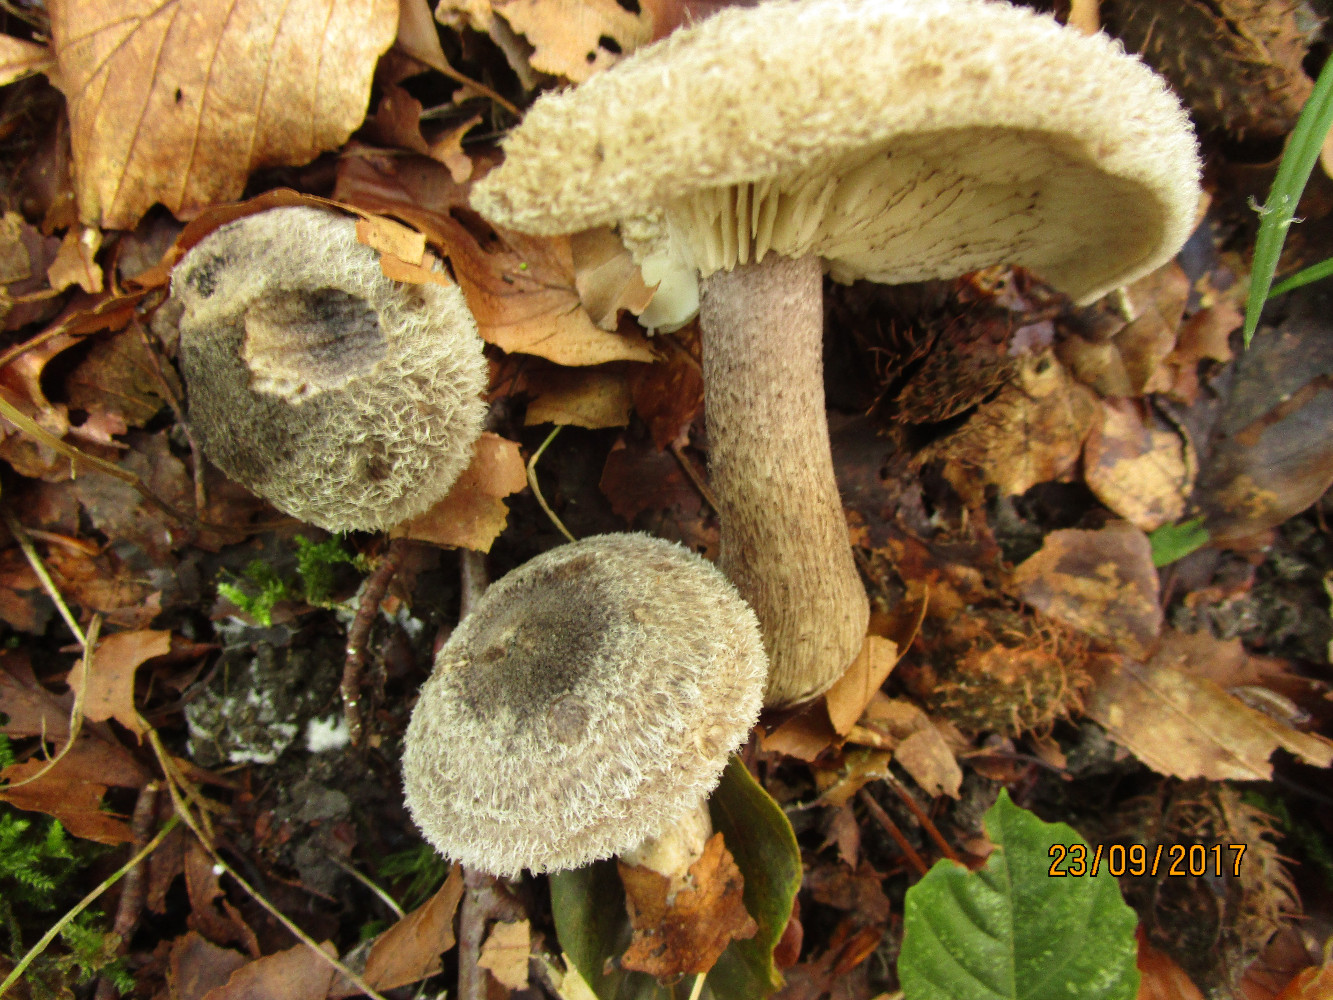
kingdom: Fungi
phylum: Basidiomycota
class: Agaricomycetes
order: Agaricales
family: Tricholomataceae
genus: Tricholoma
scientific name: Tricholoma atrosquamosum
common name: sortskællet ridderhat
